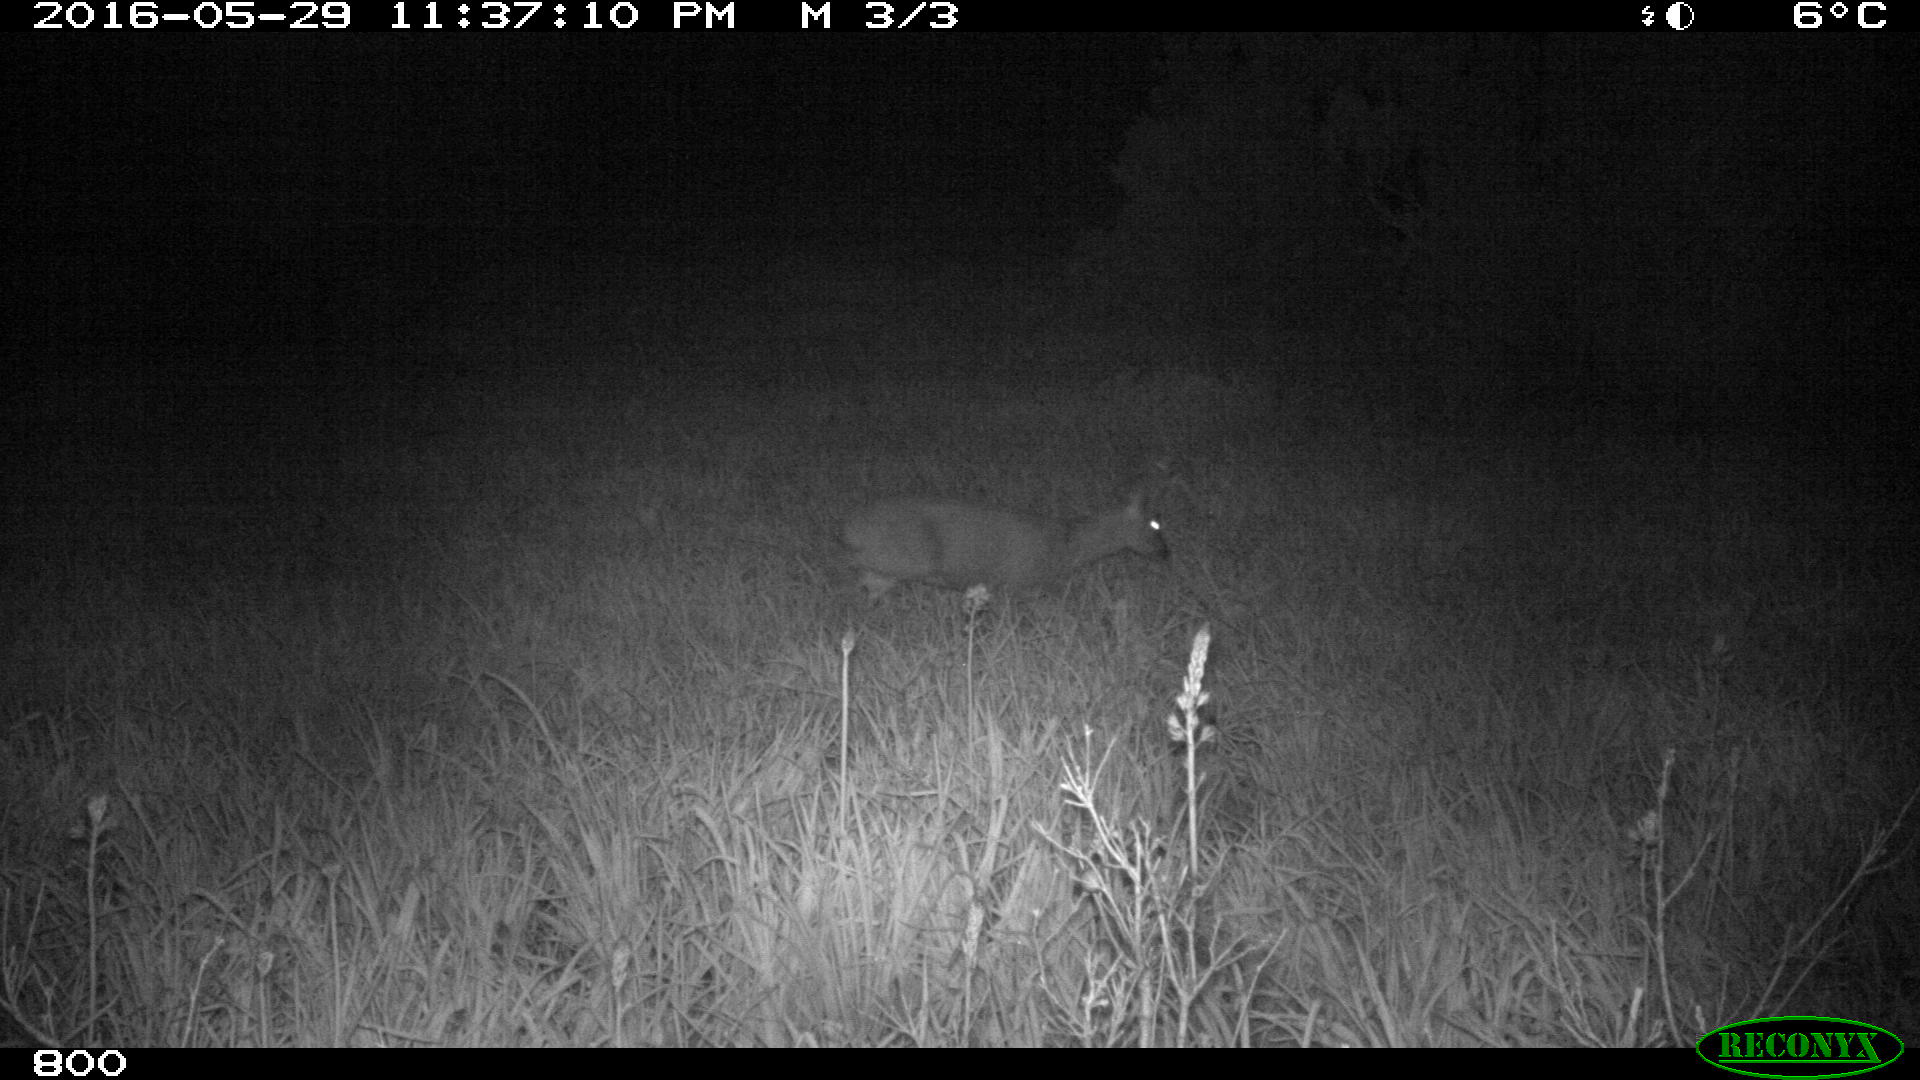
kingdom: Animalia
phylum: Chordata
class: Mammalia
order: Artiodactyla
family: Cervidae
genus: Capreolus
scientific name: Capreolus capreolus
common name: Western roe deer
